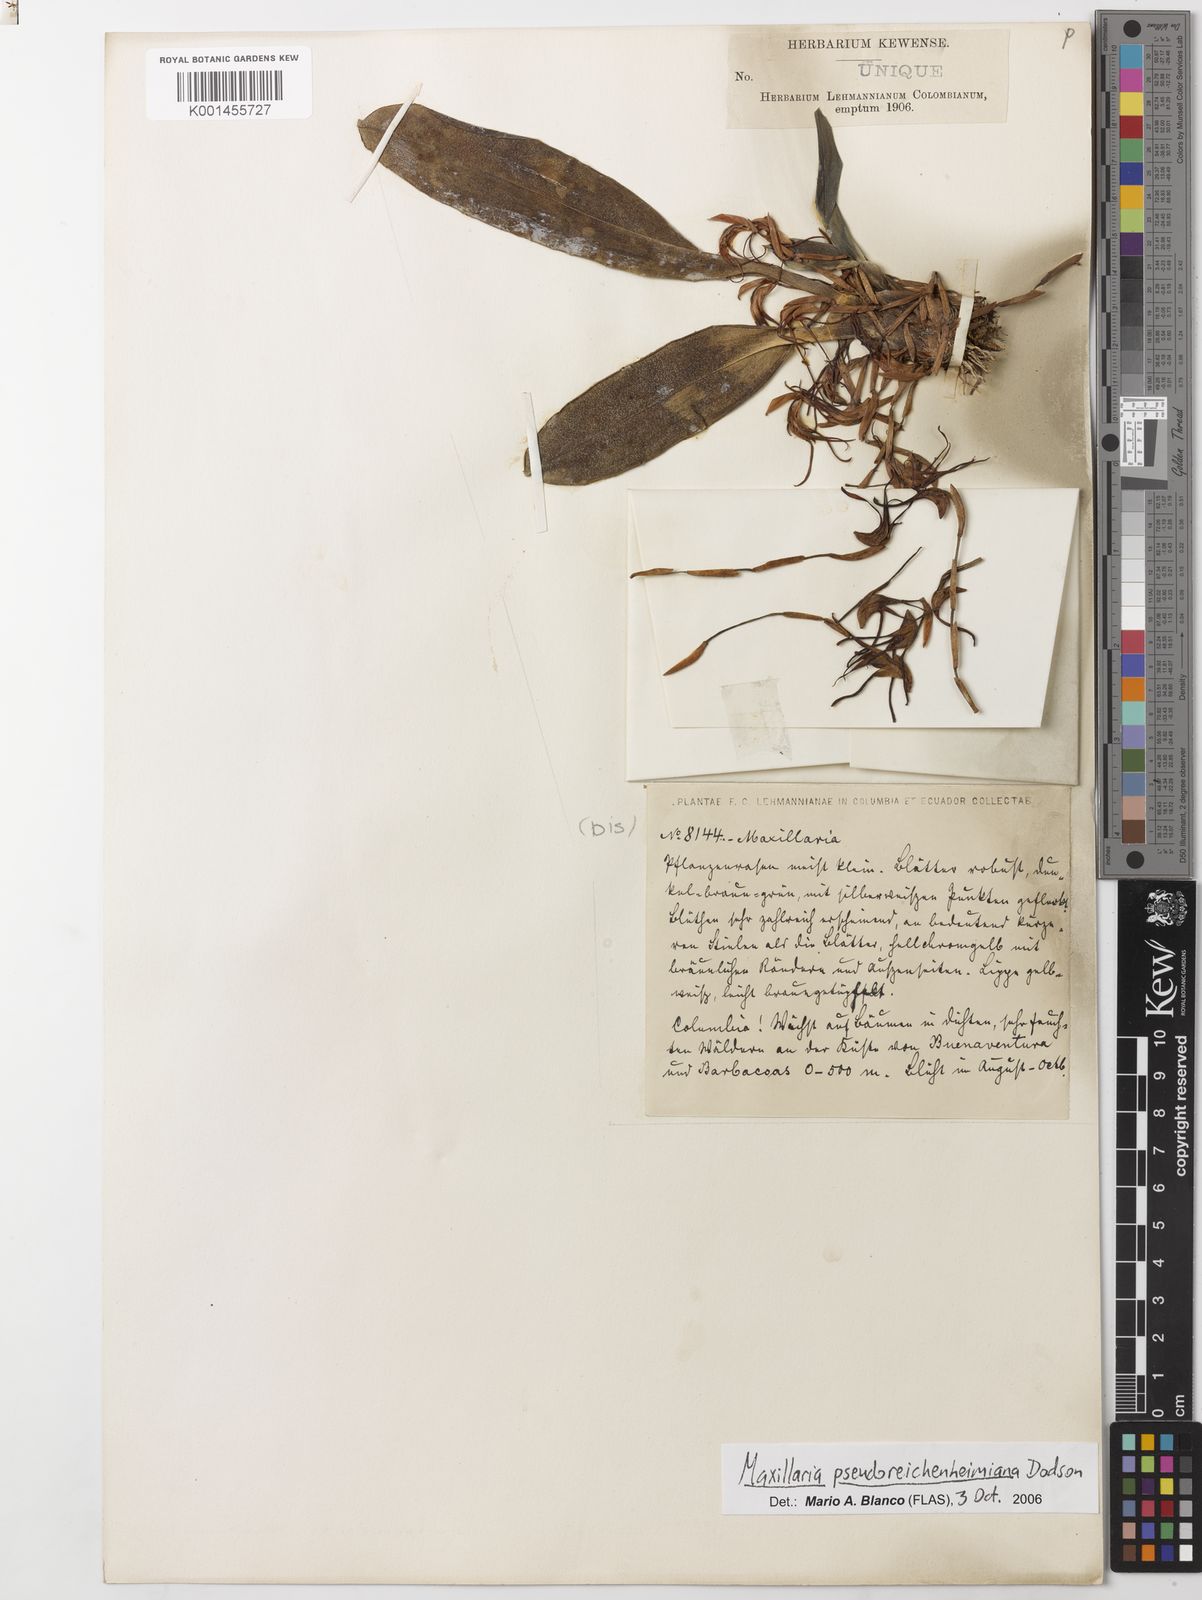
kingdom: Plantae
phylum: Tracheophyta
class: Liliopsida
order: Asparagales
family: Orchidaceae
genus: Maxillaria
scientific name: Maxillaria pseudoreichenheimiana
